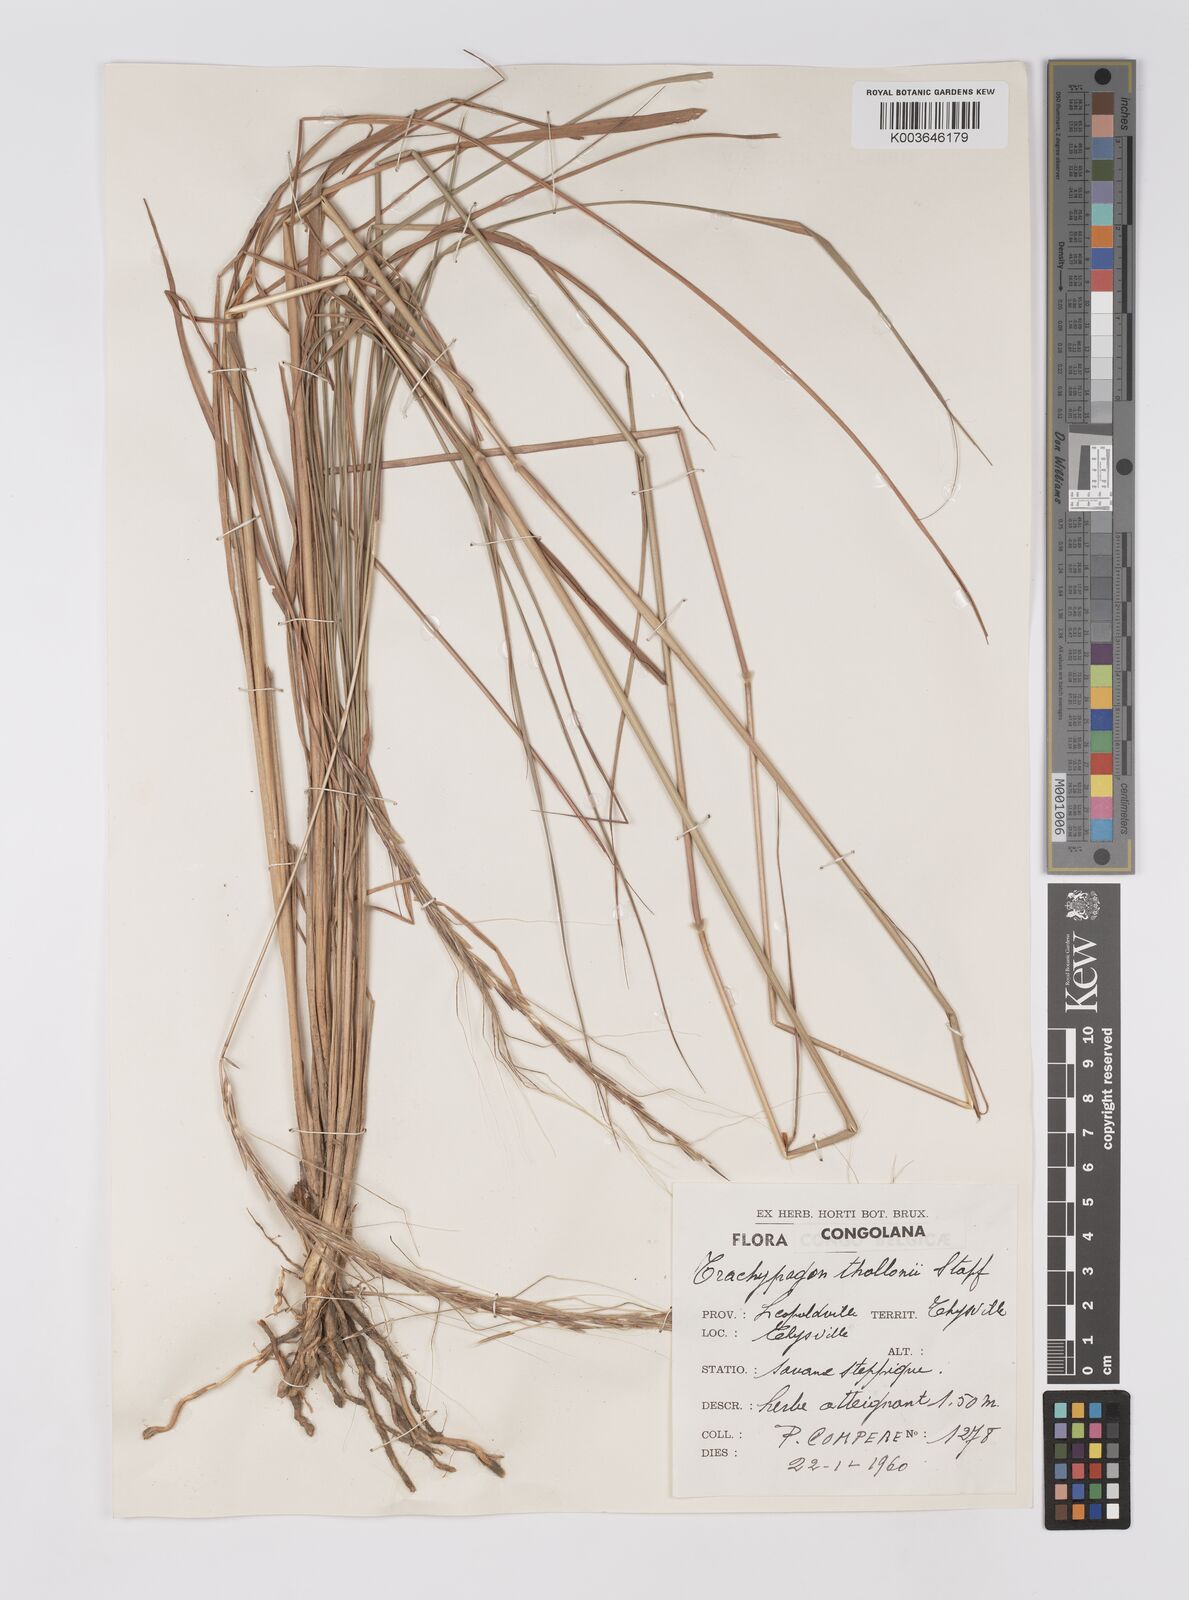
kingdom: Plantae
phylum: Tracheophyta
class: Liliopsida
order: Poales
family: Poaceae
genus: Trachypogon
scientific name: Trachypogon spicatus
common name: Crinkle-awn
